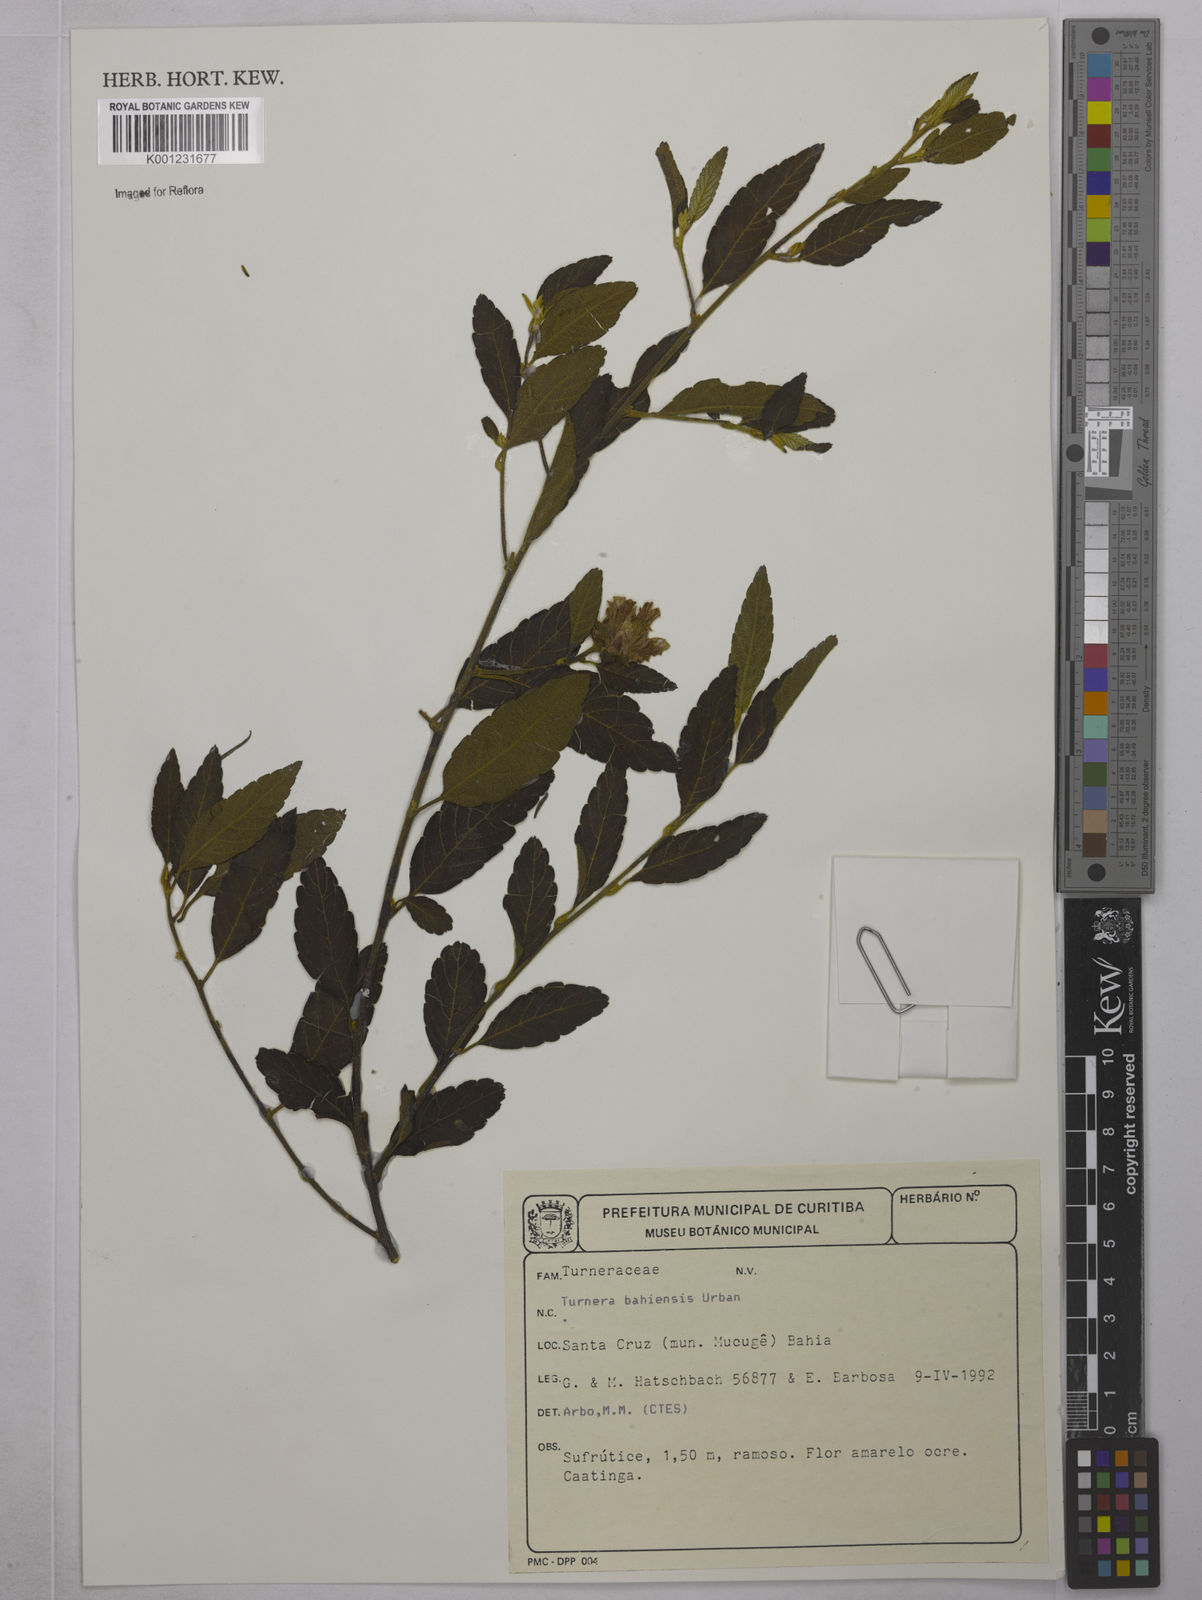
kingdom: Plantae
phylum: Tracheophyta
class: Magnoliopsida
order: Malpighiales
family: Turneraceae
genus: Turnera
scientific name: Turnera bahiensis
